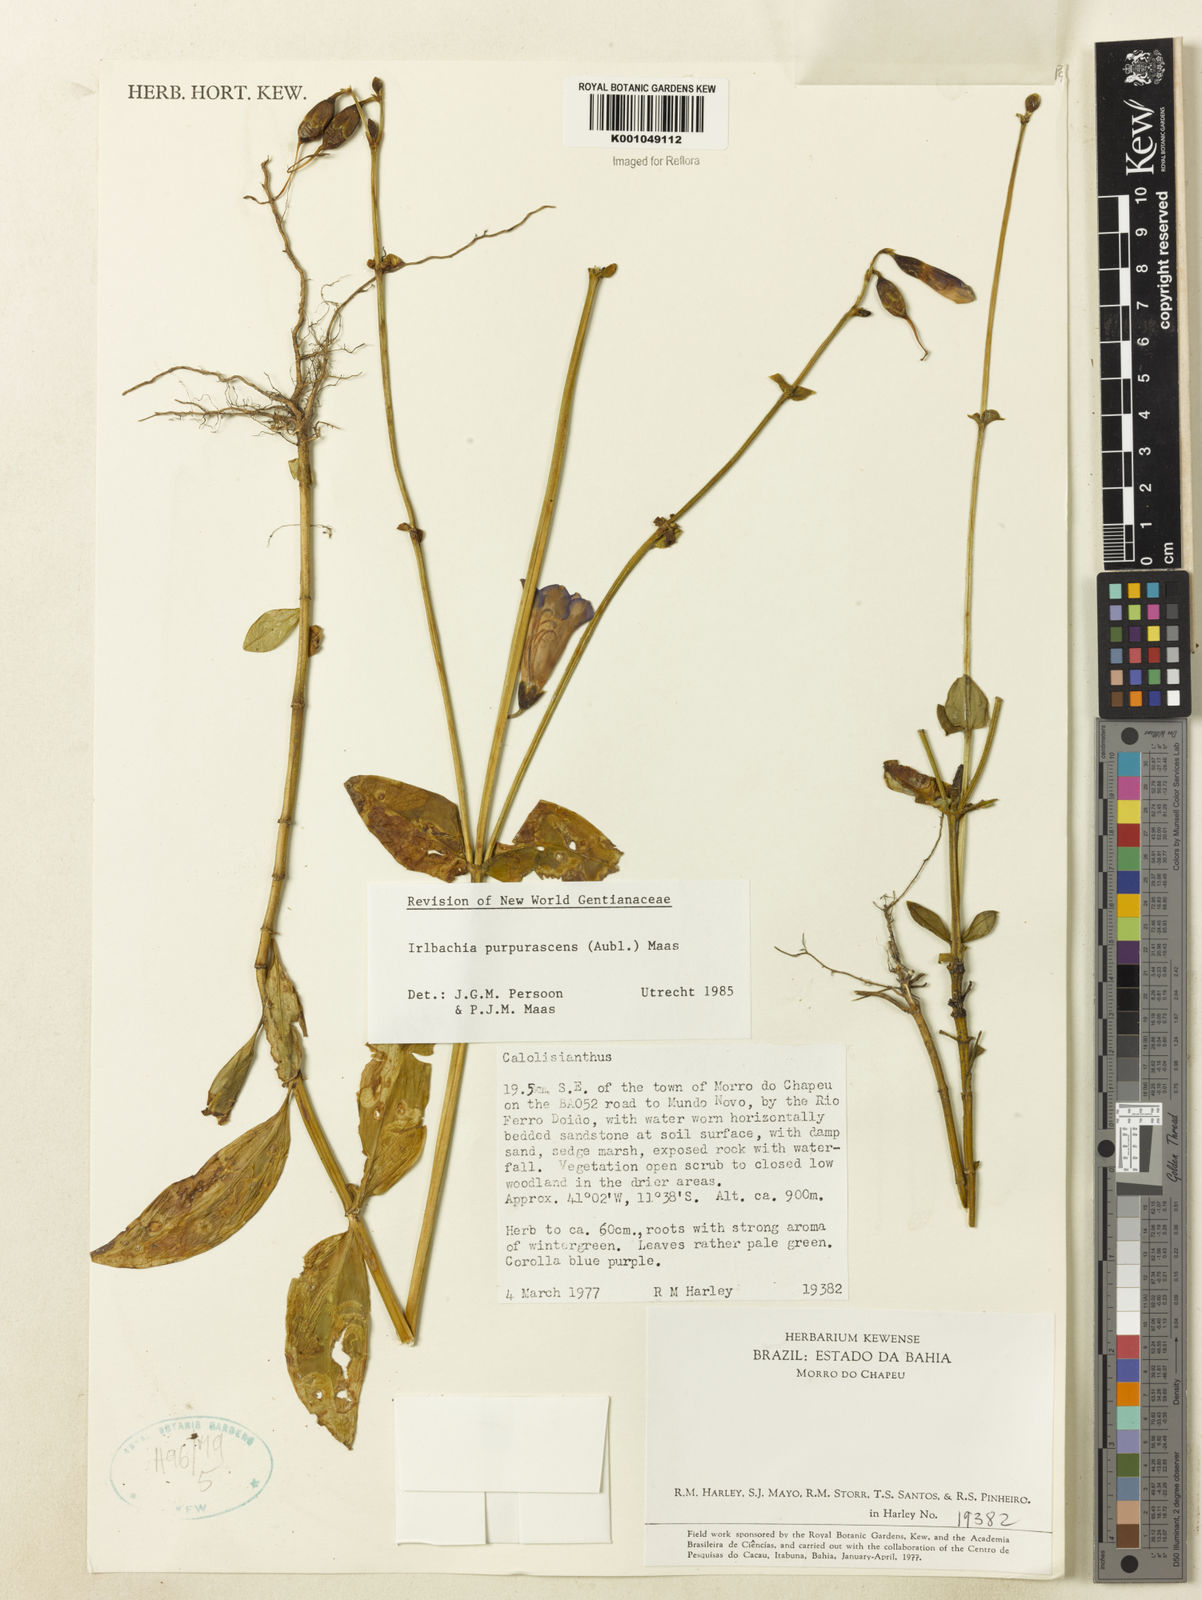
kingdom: Plantae
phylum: Tracheophyta
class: Magnoliopsida
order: Gentianales
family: Gentianaceae
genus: Chelonanthus
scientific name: Chelonanthus purpurascens
